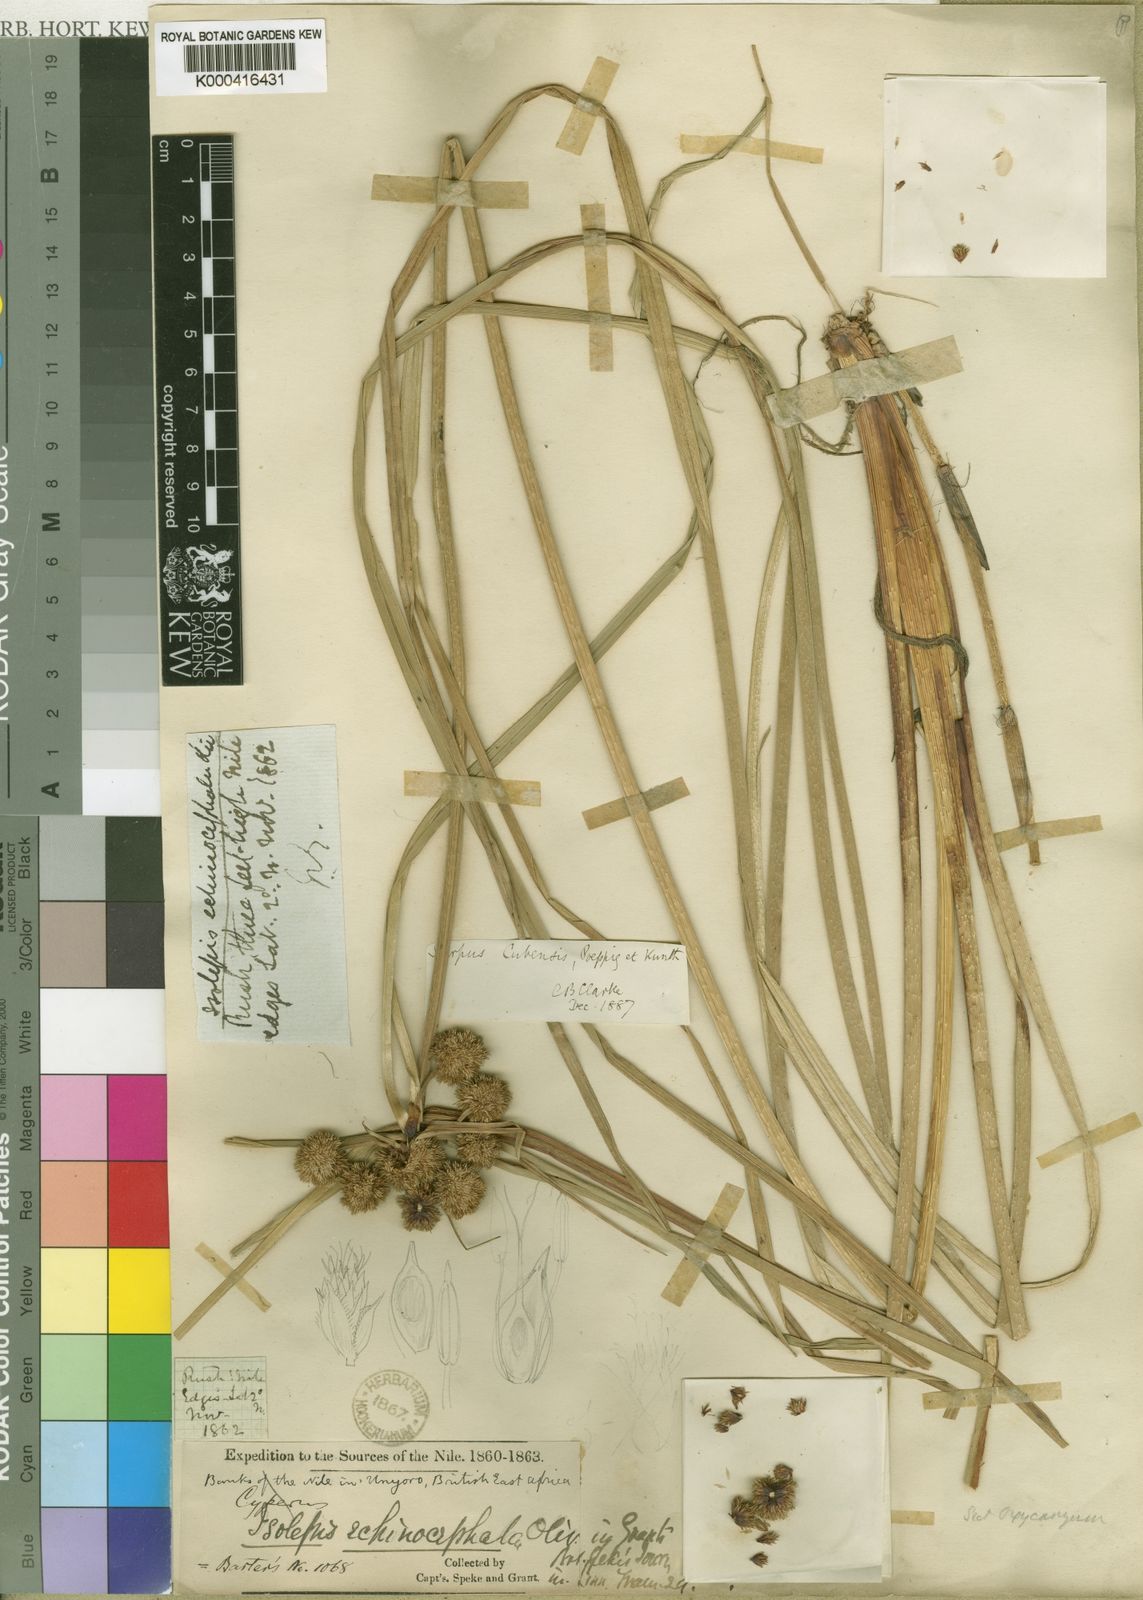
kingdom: Plantae
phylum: Tracheophyta
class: Liliopsida
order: Poales
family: Cyperaceae
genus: Cyperus
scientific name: Cyperus blepharoleptos
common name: Cuban bulrush
